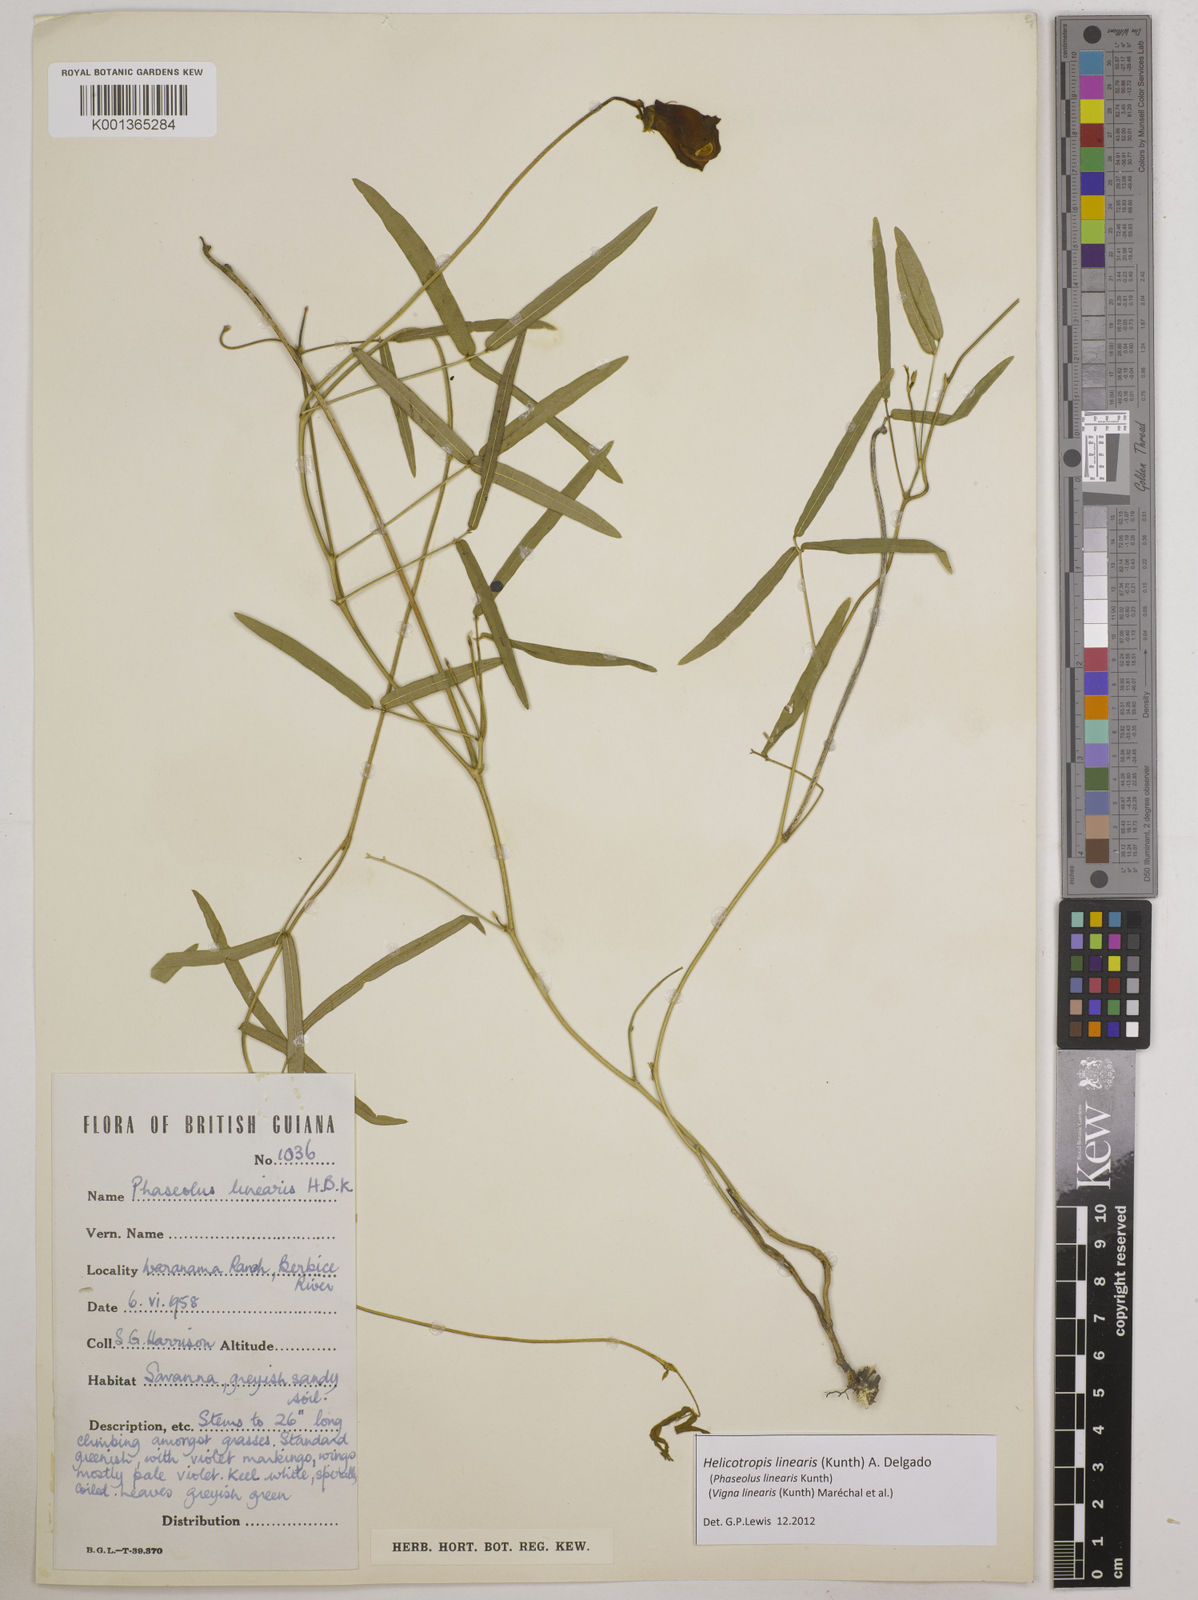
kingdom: Plantae
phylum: Tracheophyta
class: Magnoliopsida
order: Fabales
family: Fabaceae
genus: Helicotropis
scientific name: Helicotropis linearis
